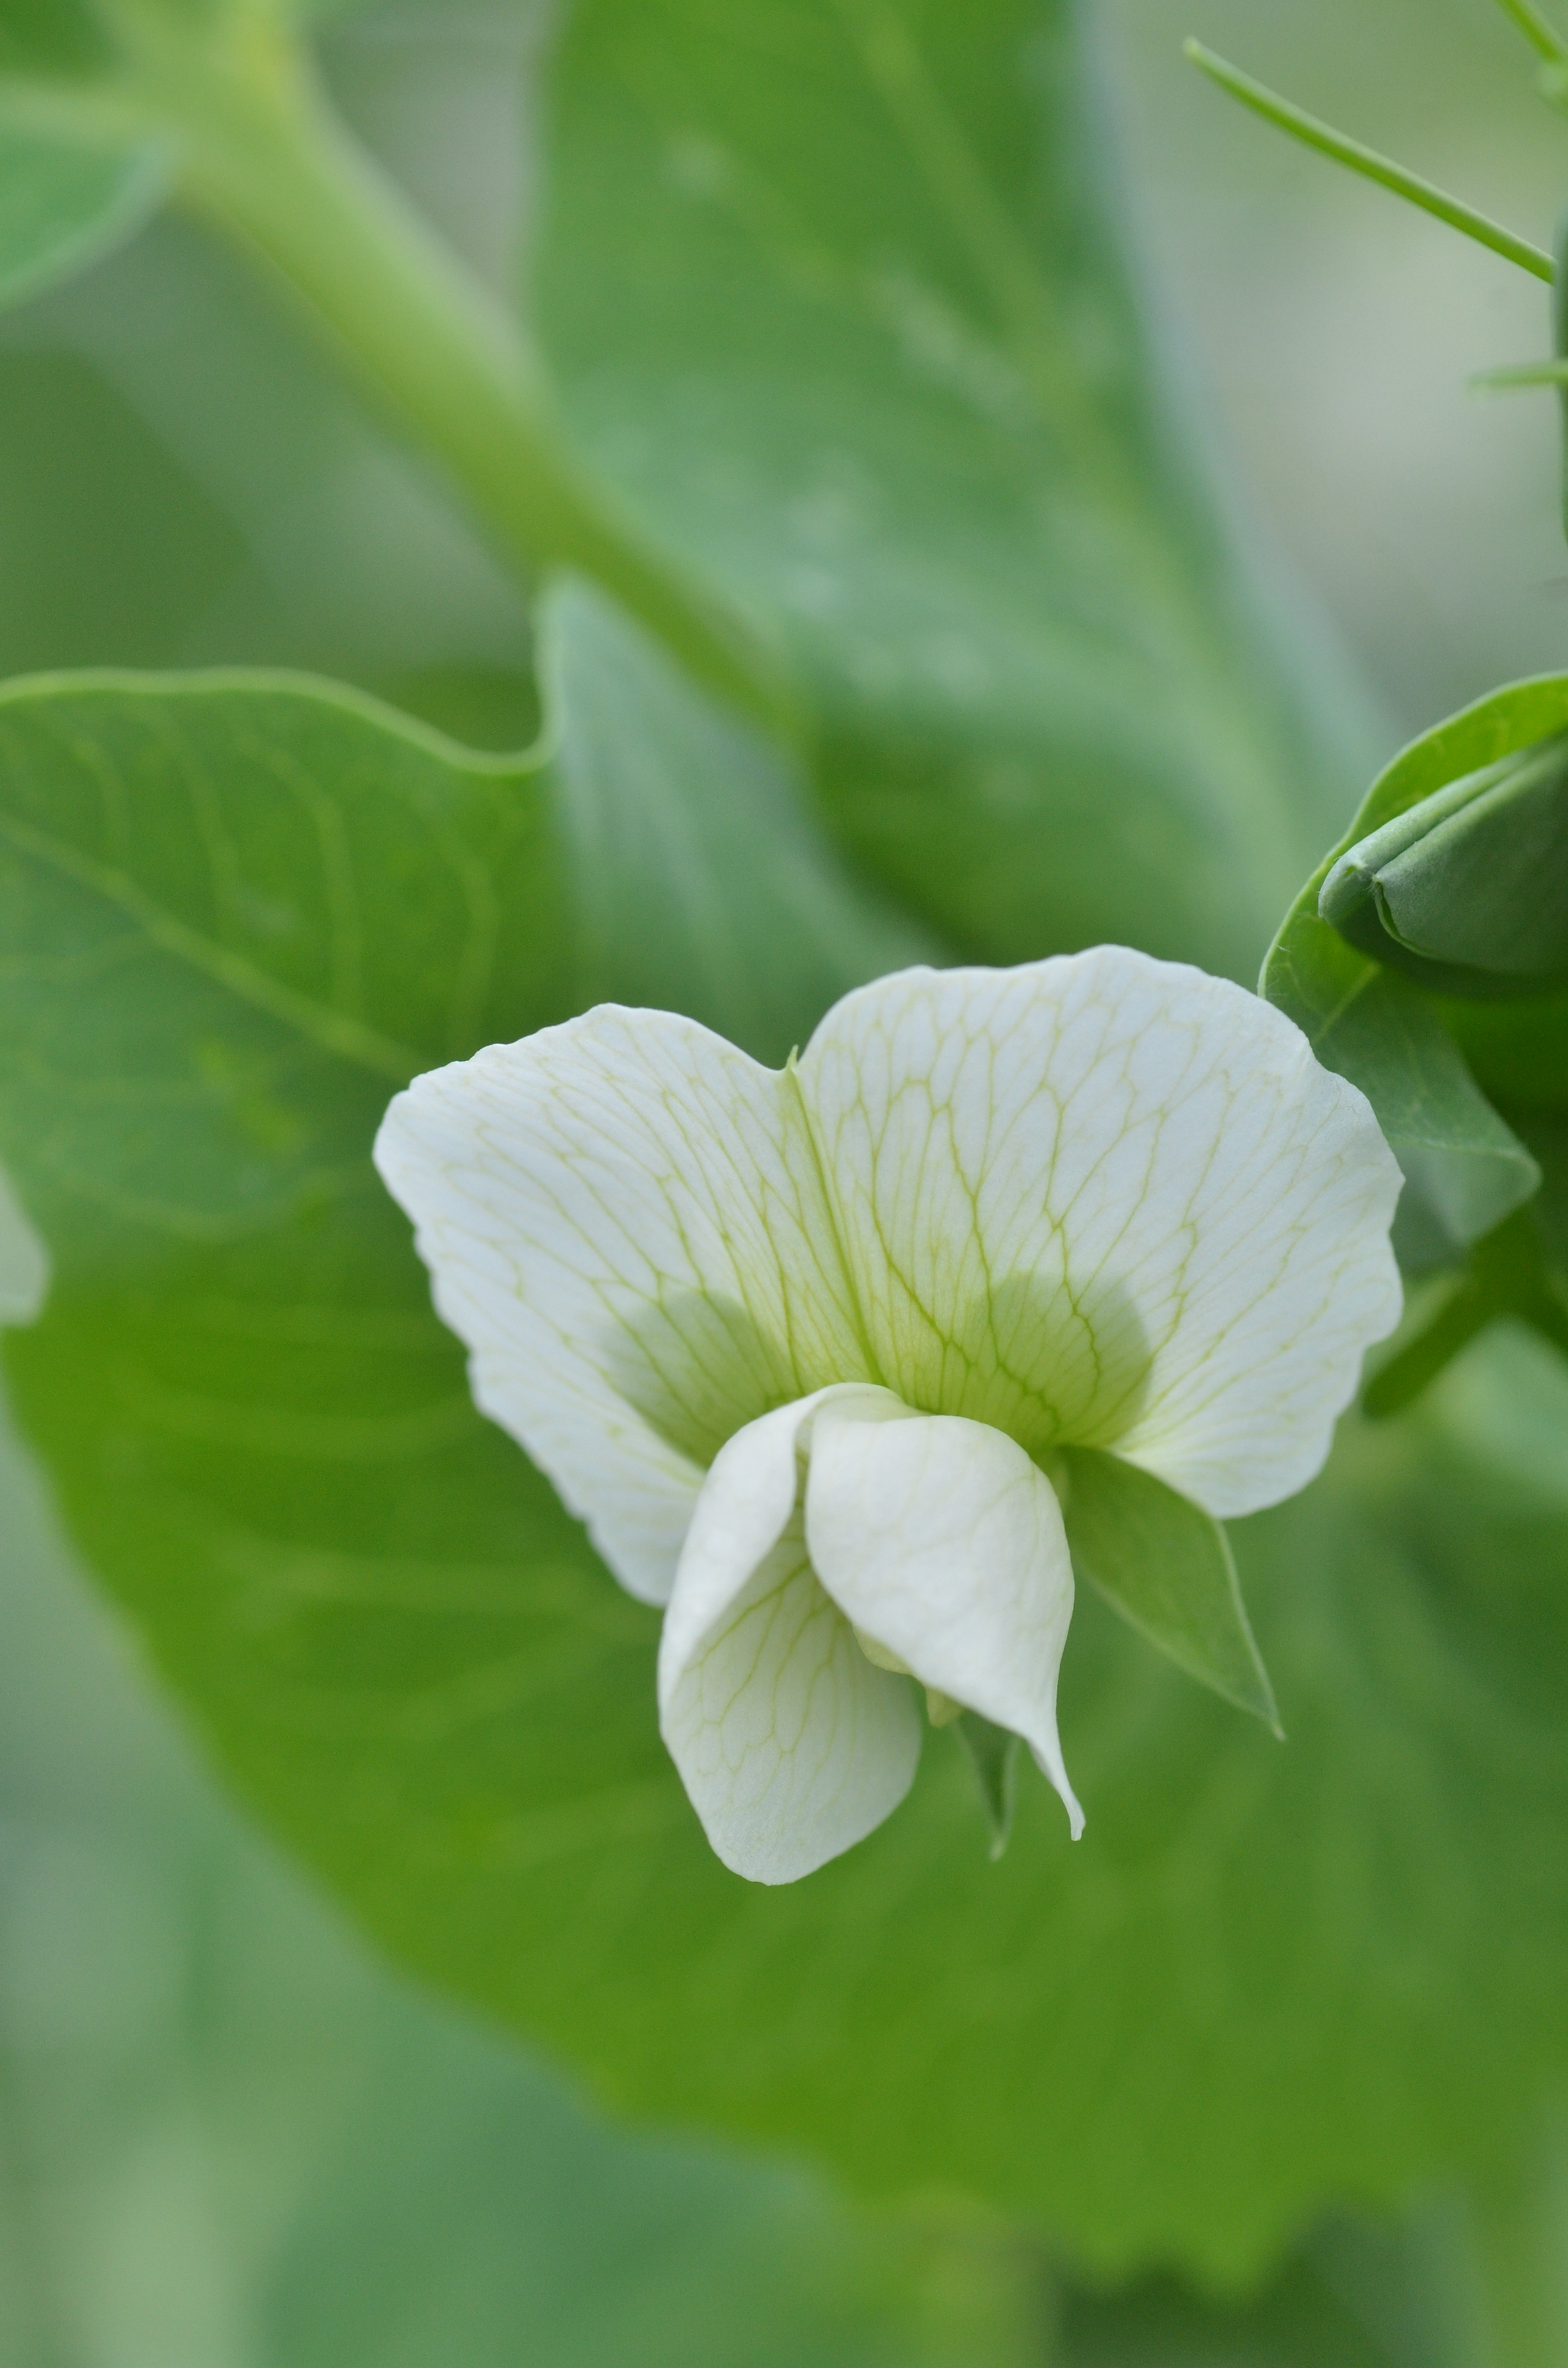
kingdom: Plantae
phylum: Tracheophyta
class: Magnoliopsida
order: Fabales
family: Fabaceae
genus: Lathyrus
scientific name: Lathyrus oleraceus
